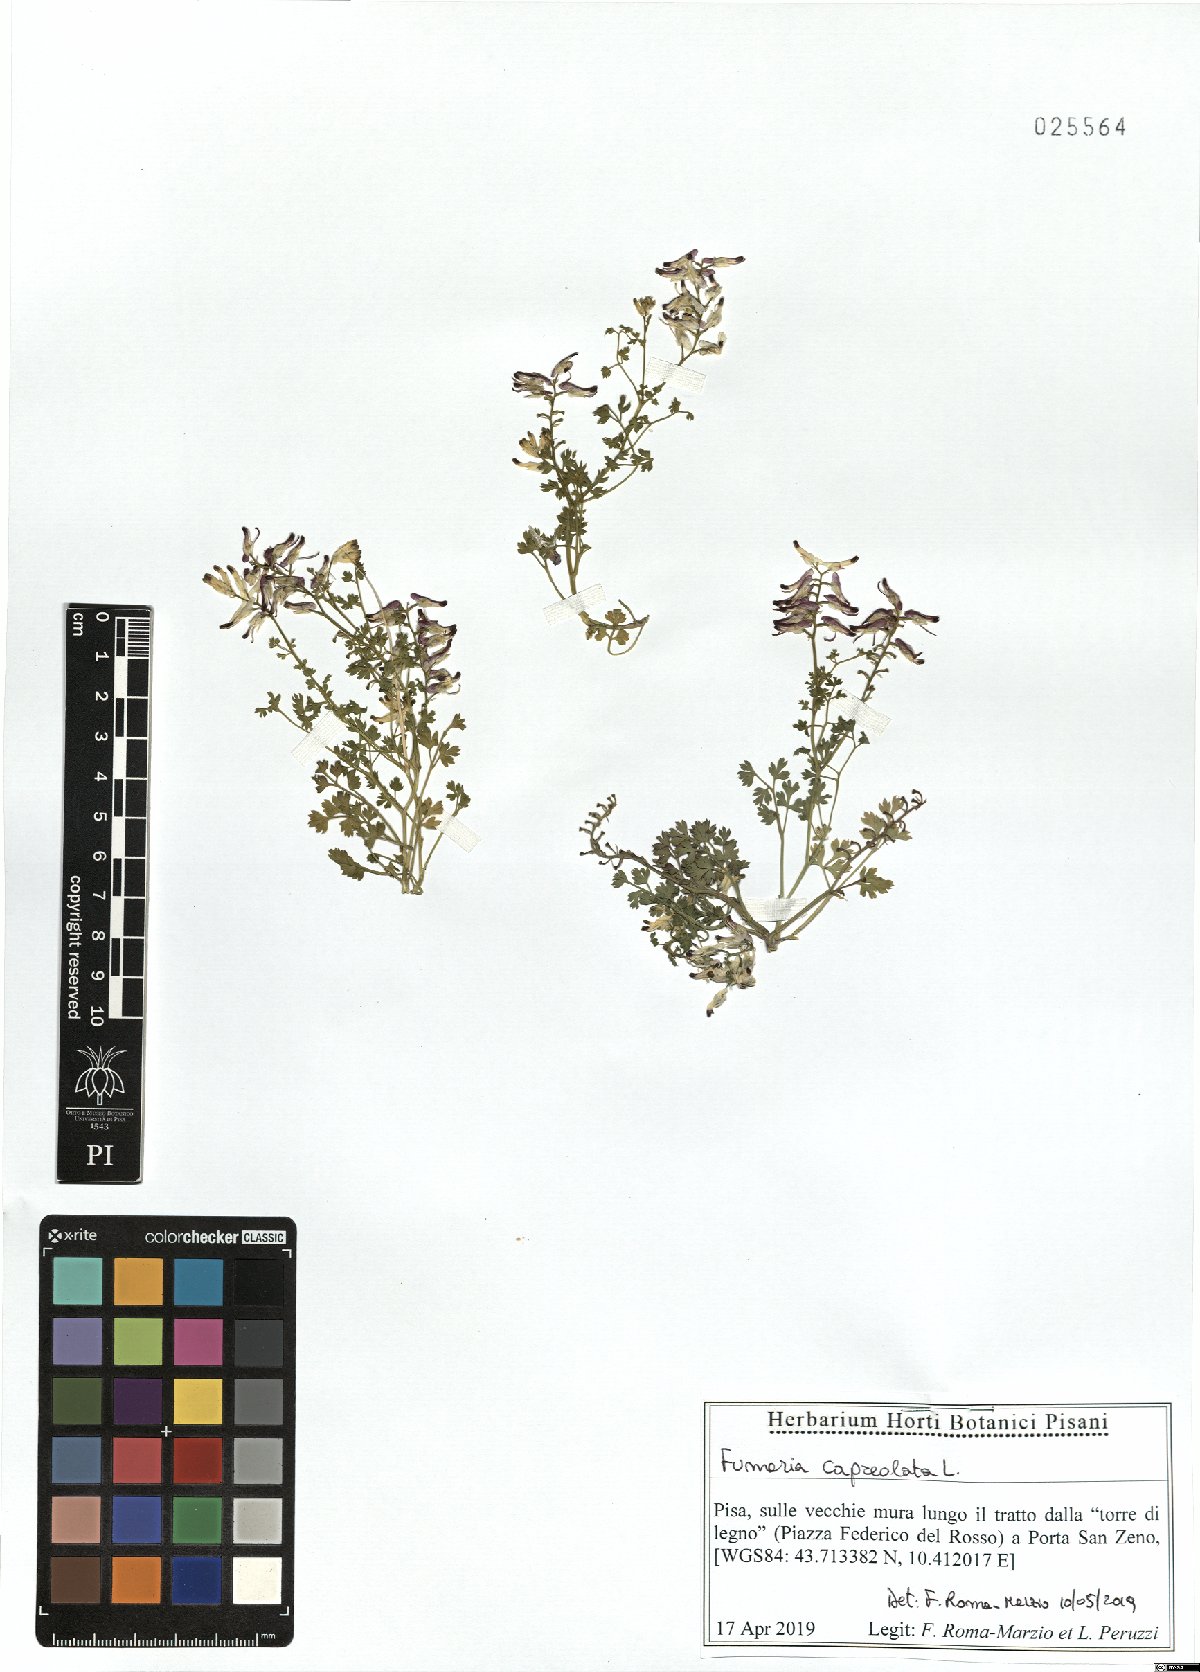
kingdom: Plantae
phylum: Tracheophyta
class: Magnoliopsida
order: Ranunculales
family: Papaveraceae
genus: Fumaria
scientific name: Fumaria capreolata
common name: White ramping-fumitory
